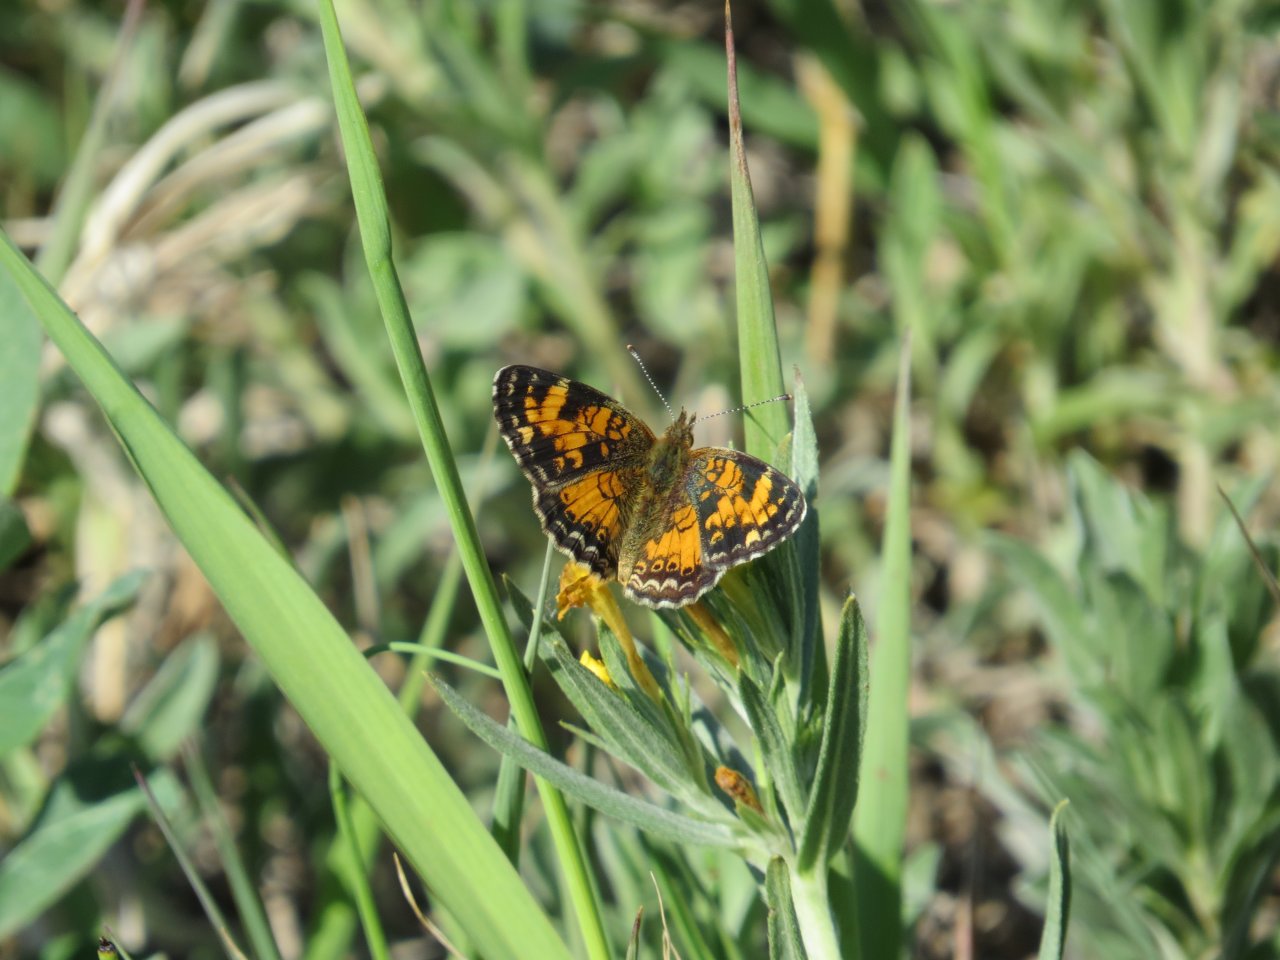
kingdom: Animalia
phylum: Arthropoda
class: Insecta
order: Lepidoptera
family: Nymphalidae
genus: Phyciodes
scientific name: Phyciodes tharos
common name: Northern Crescent
